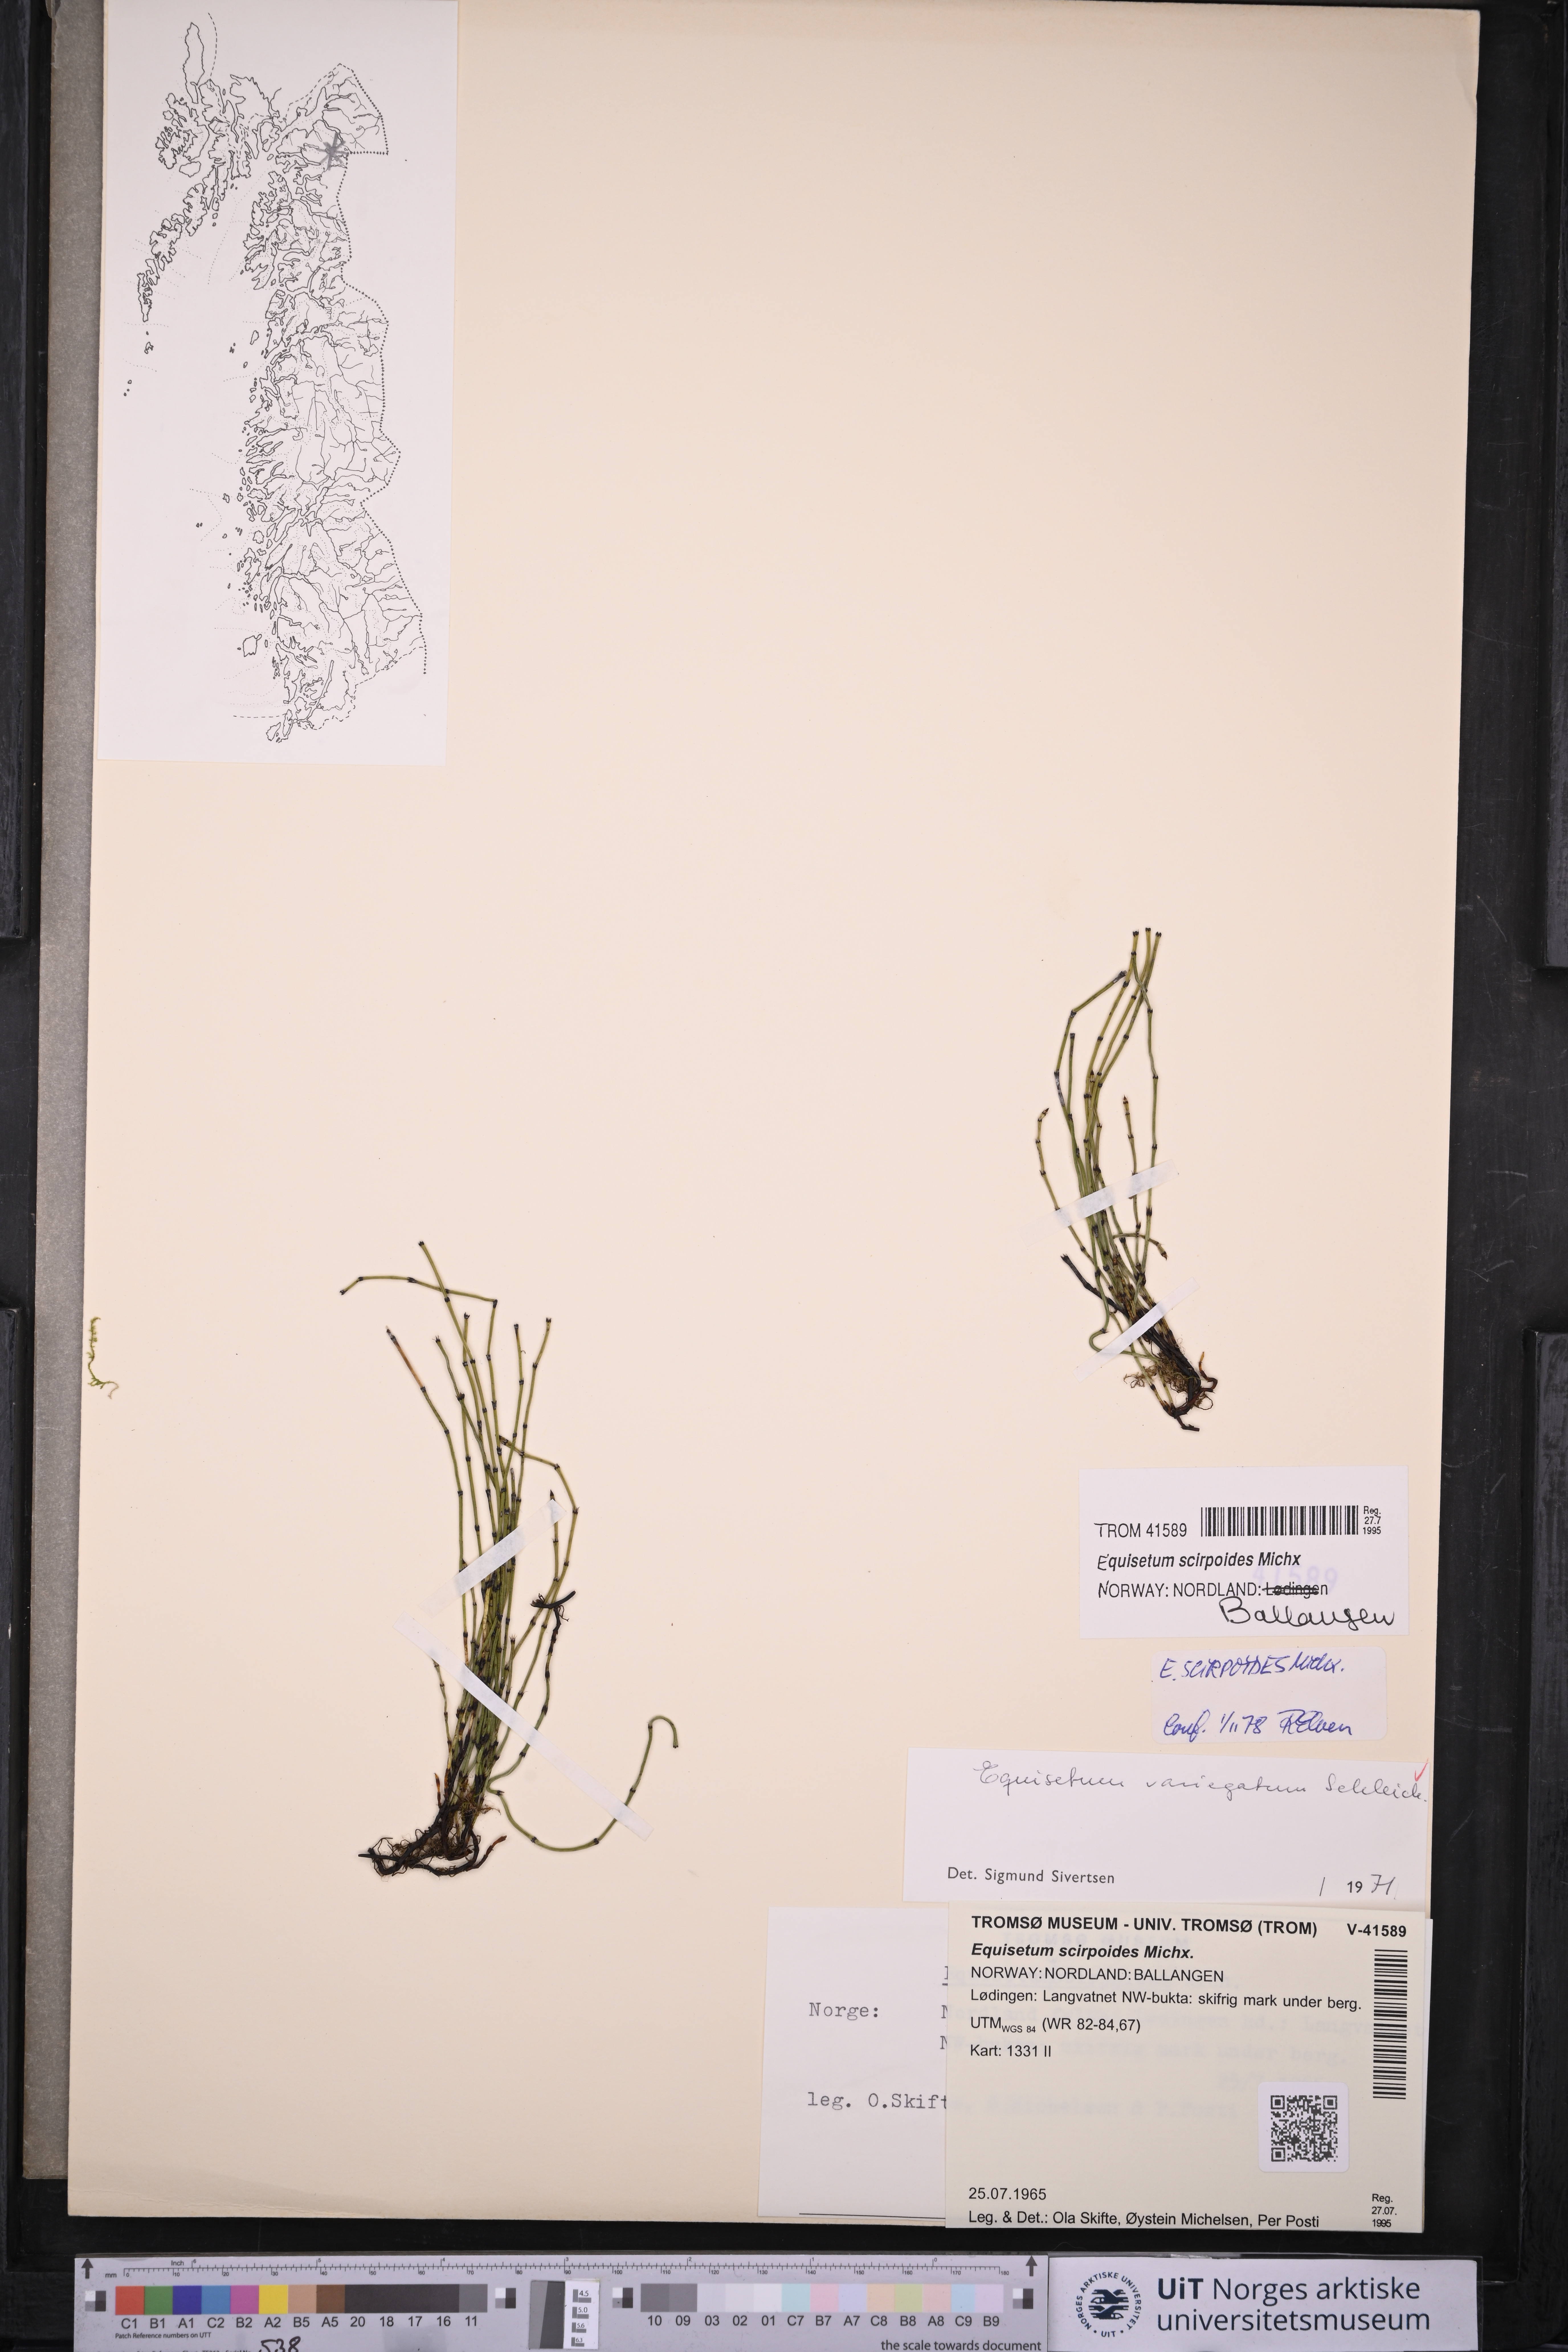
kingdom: Plantae
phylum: Tracheophyta
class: Polypodiopsida
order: Equisetales
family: Equisetaceae
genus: Equisetum
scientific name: Equisetum scirpoides
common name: Delicate horsetail
